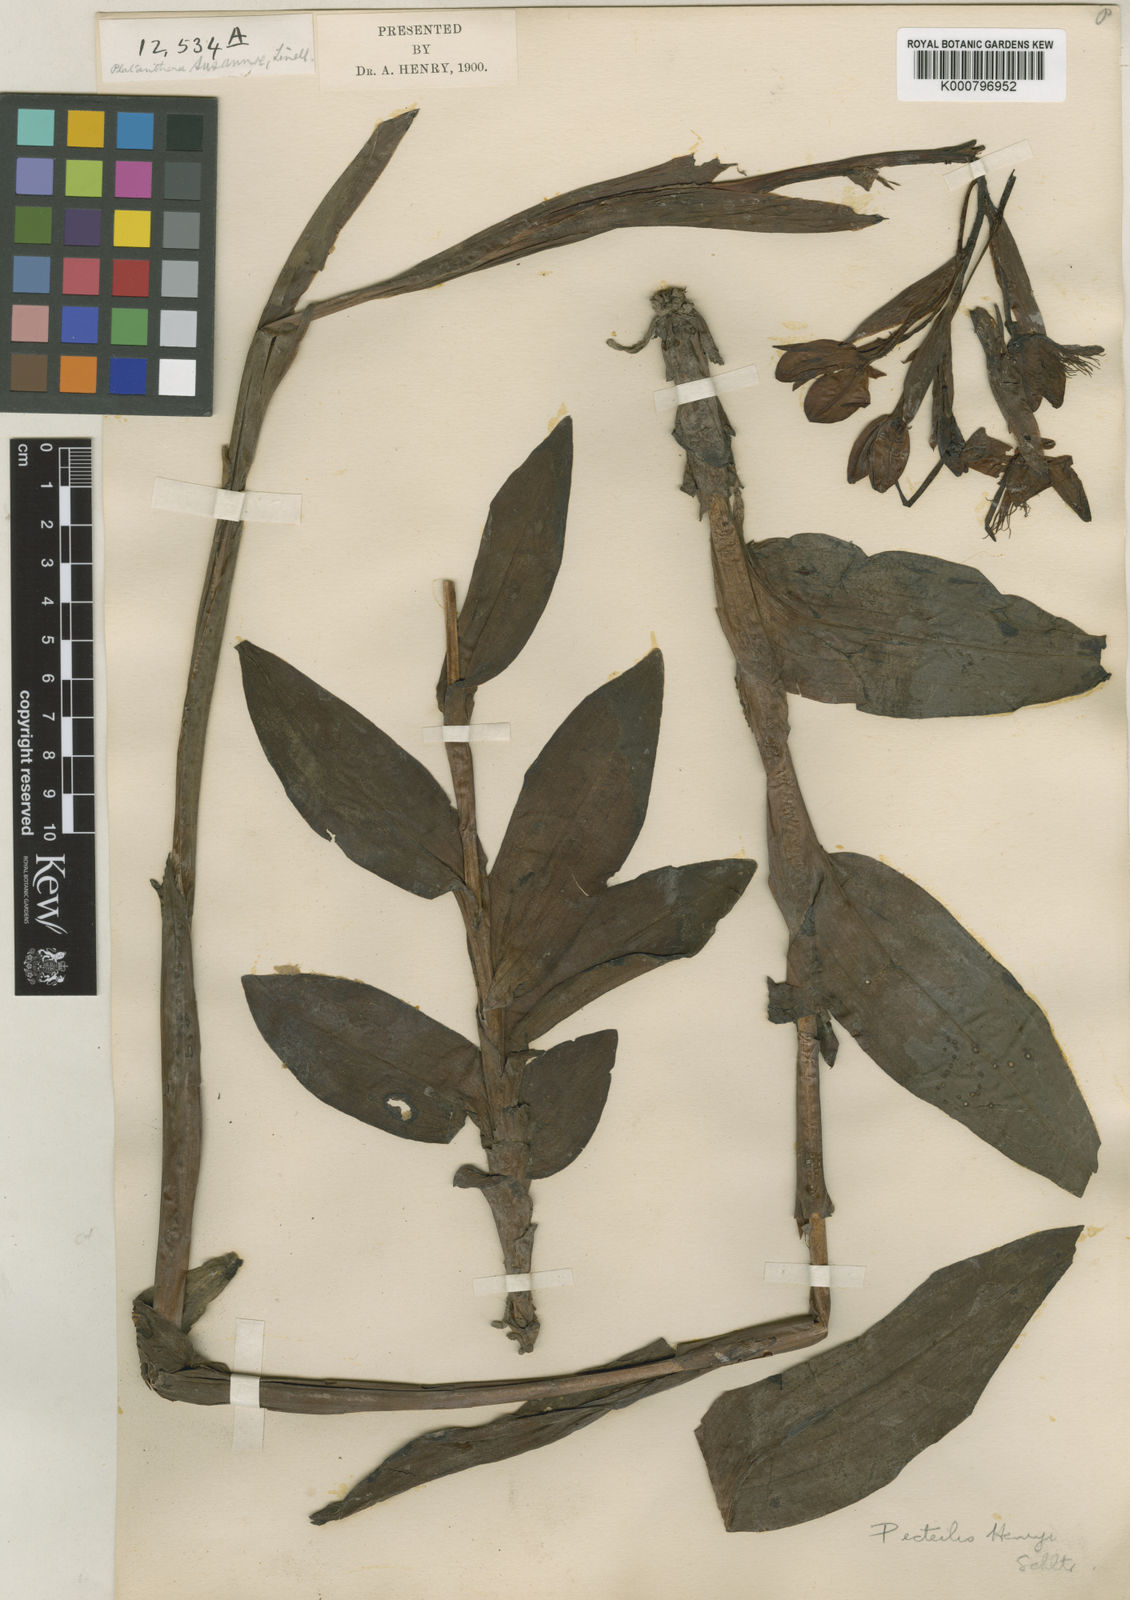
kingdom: Plantae
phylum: Tracheophyta
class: Liliopsida
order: Asparagales
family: Orchidaceae
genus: Pecteilis
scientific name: Pecteilis henryi
